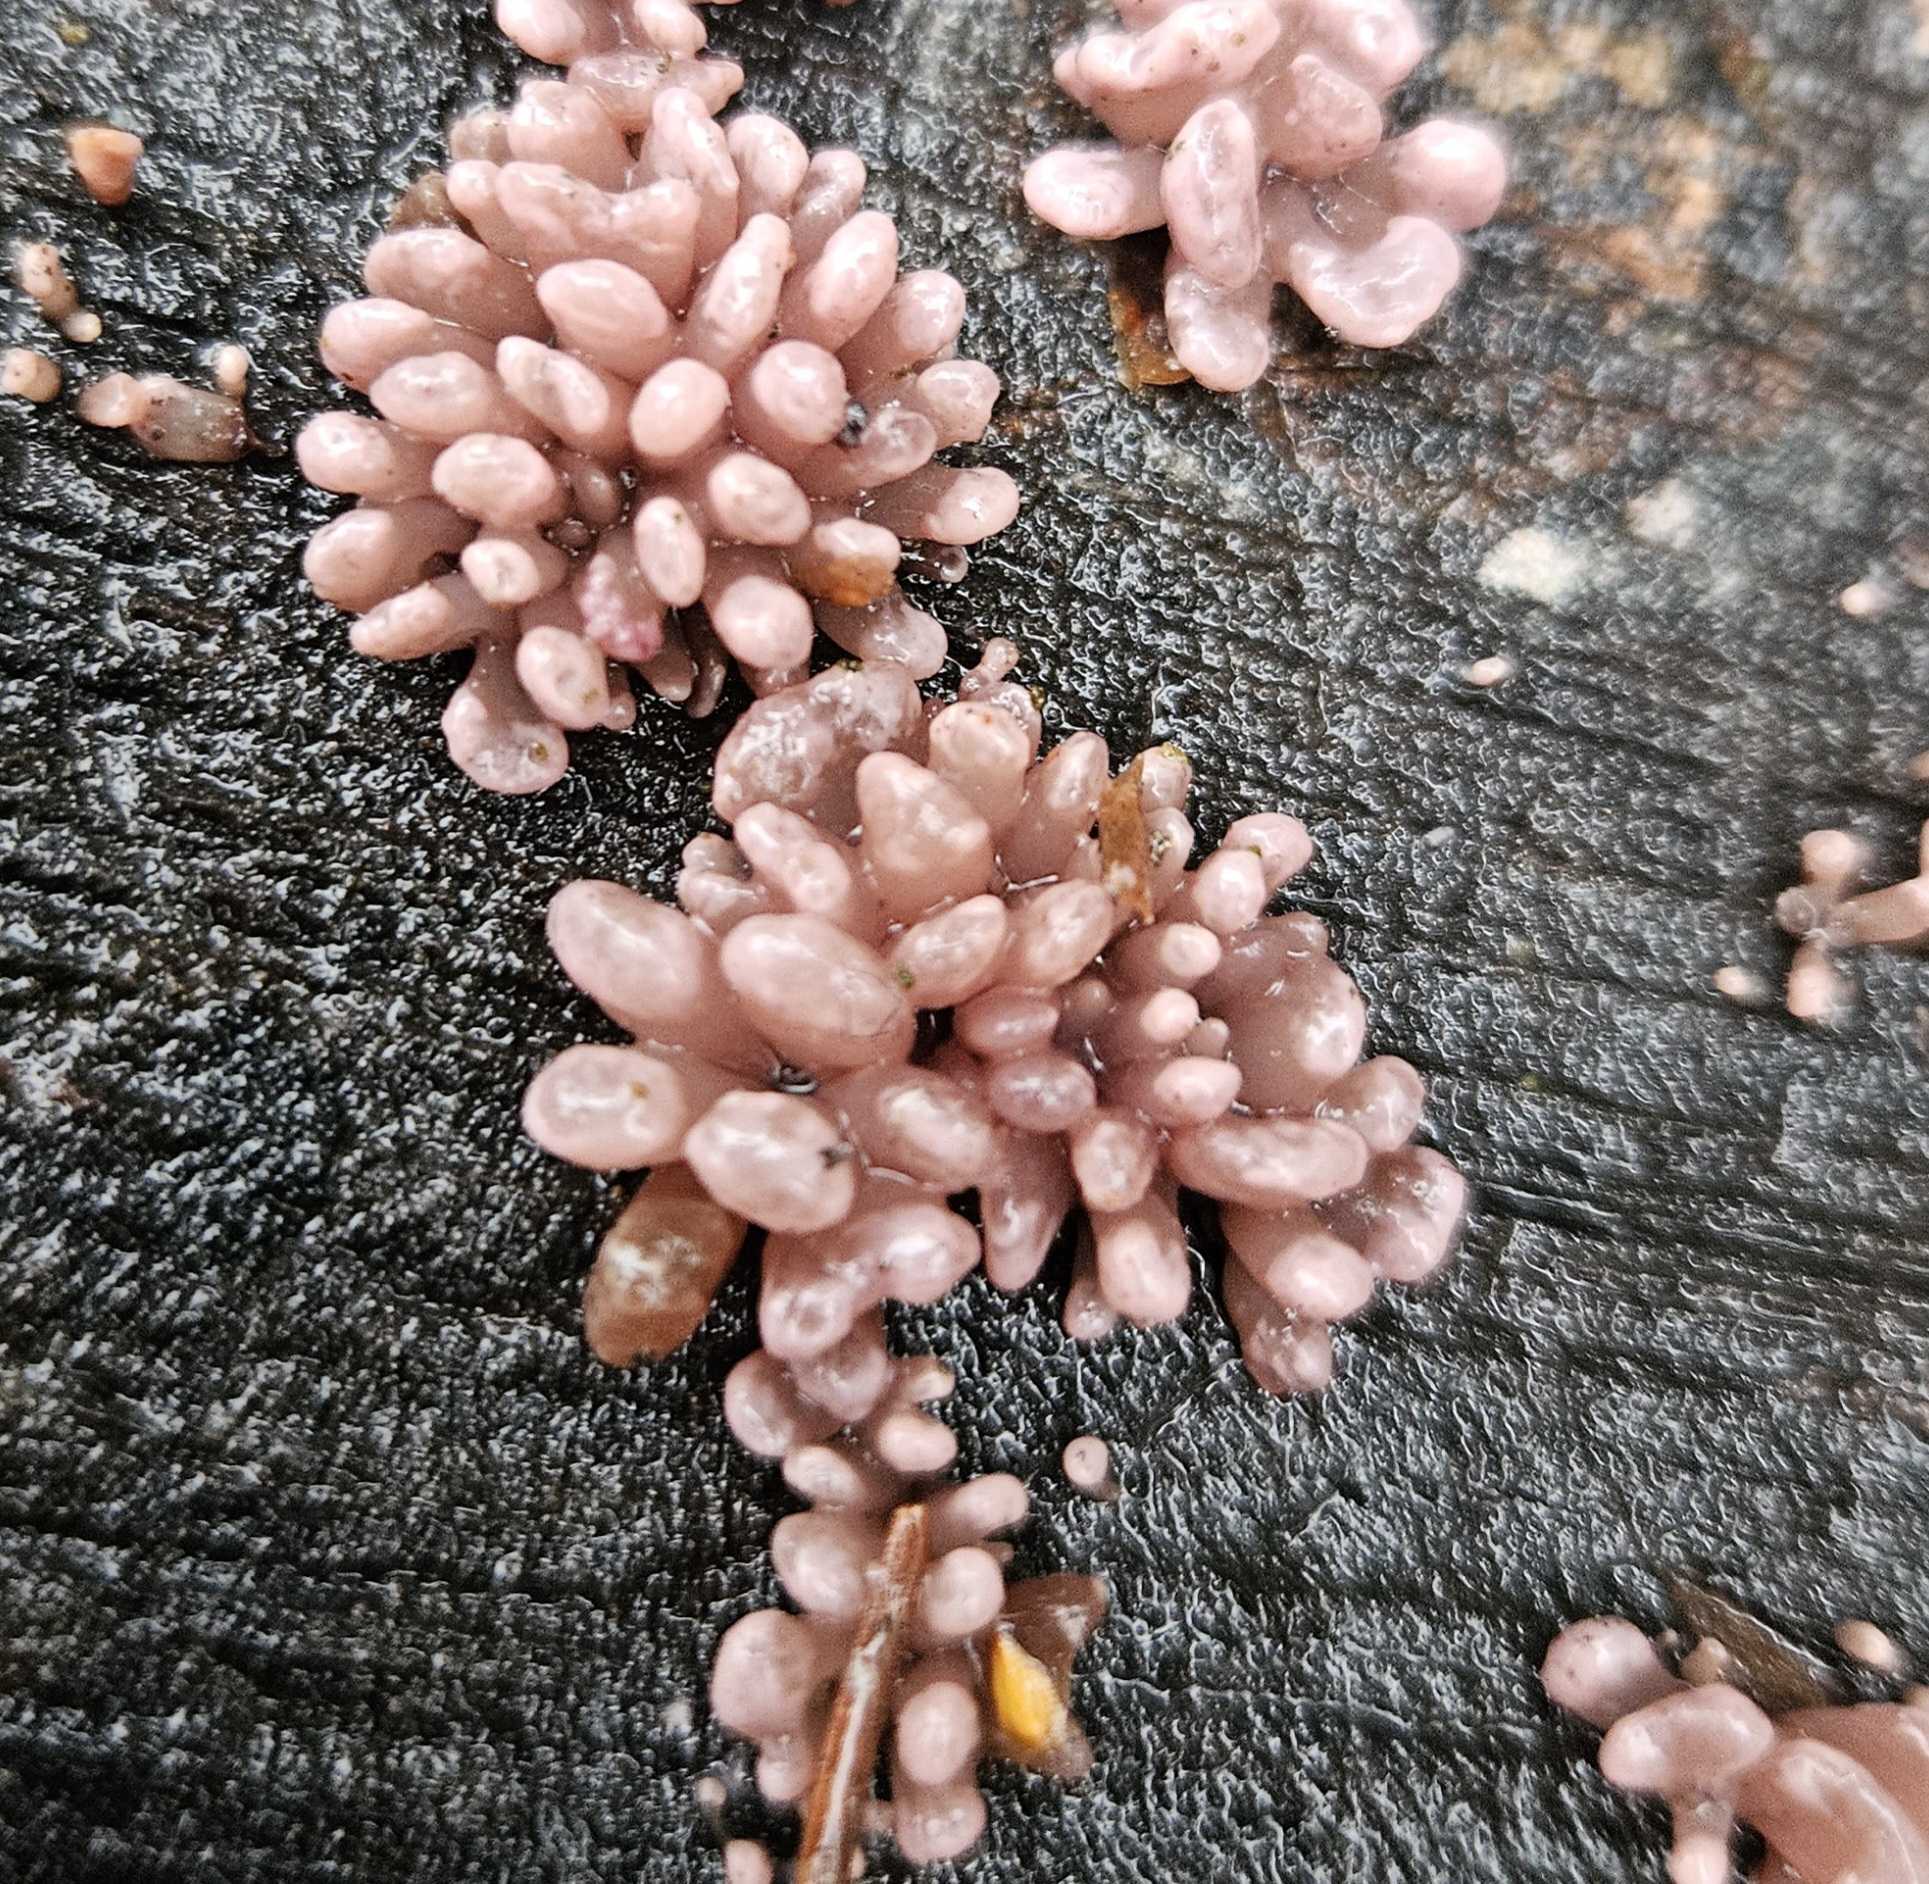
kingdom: Fungi
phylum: Ascomycota
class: Leotiomycetes
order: Helotiales
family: Gelatinodiscaceae
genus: Ascocoryne
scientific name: Ascocoryne sarcoides
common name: rødlilla sejskive
